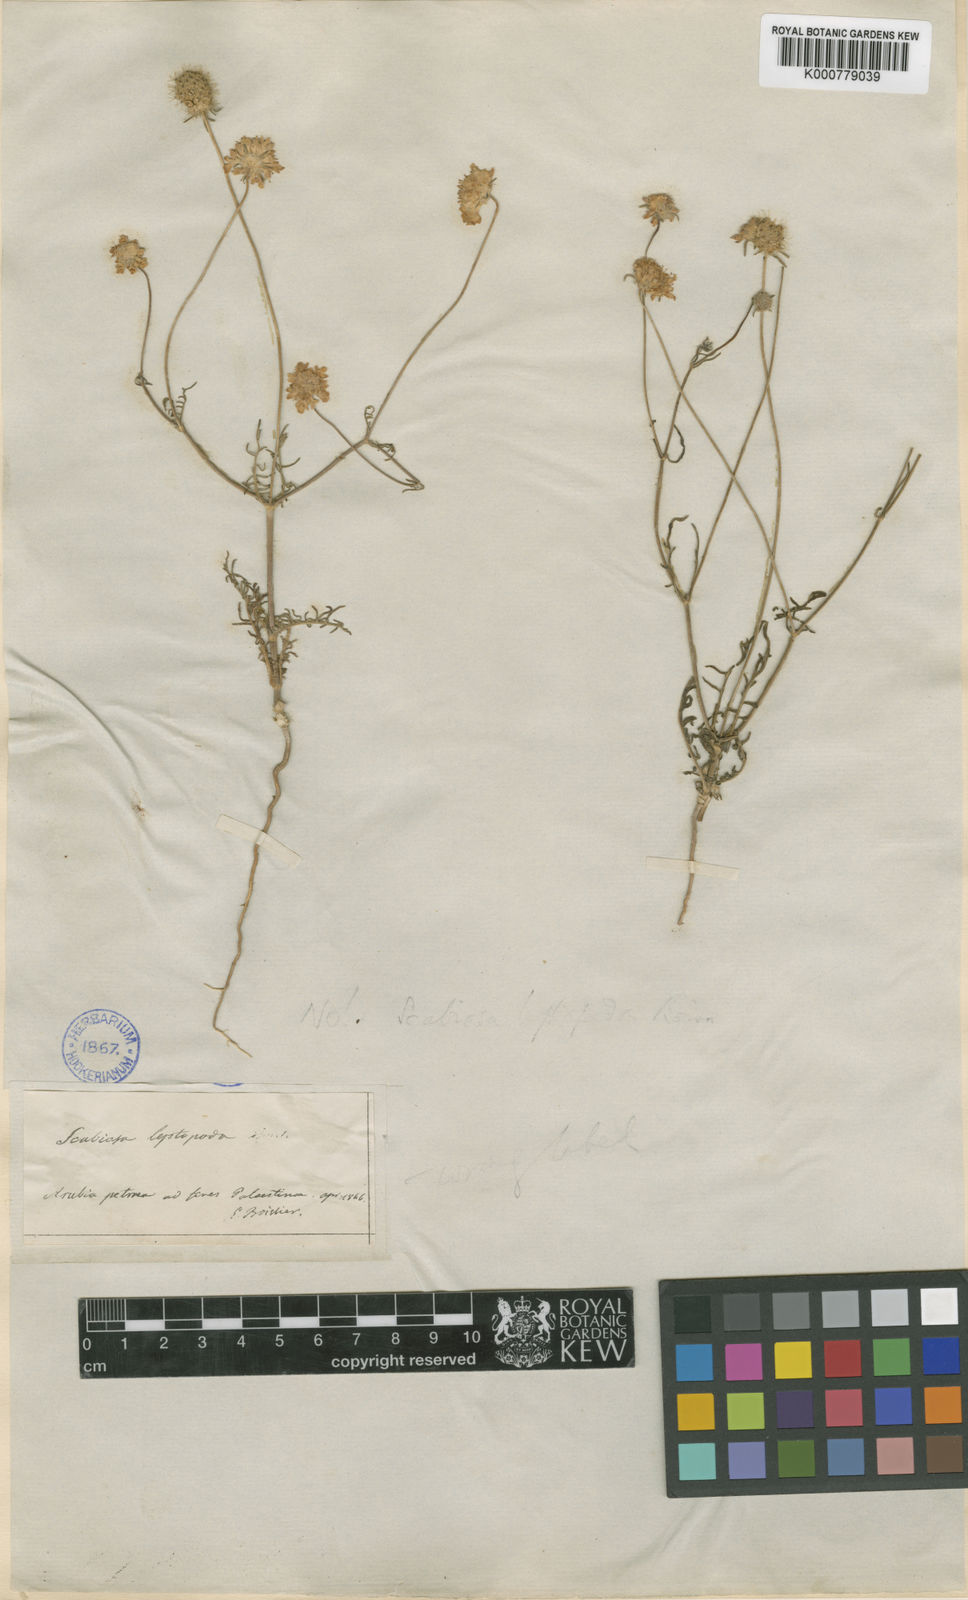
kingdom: Plantae
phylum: Tracheophyta
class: Magnoliopsida
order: Dipsacales
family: Caprifoliaceae
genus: Sixalix
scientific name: Sixalix arenaria
